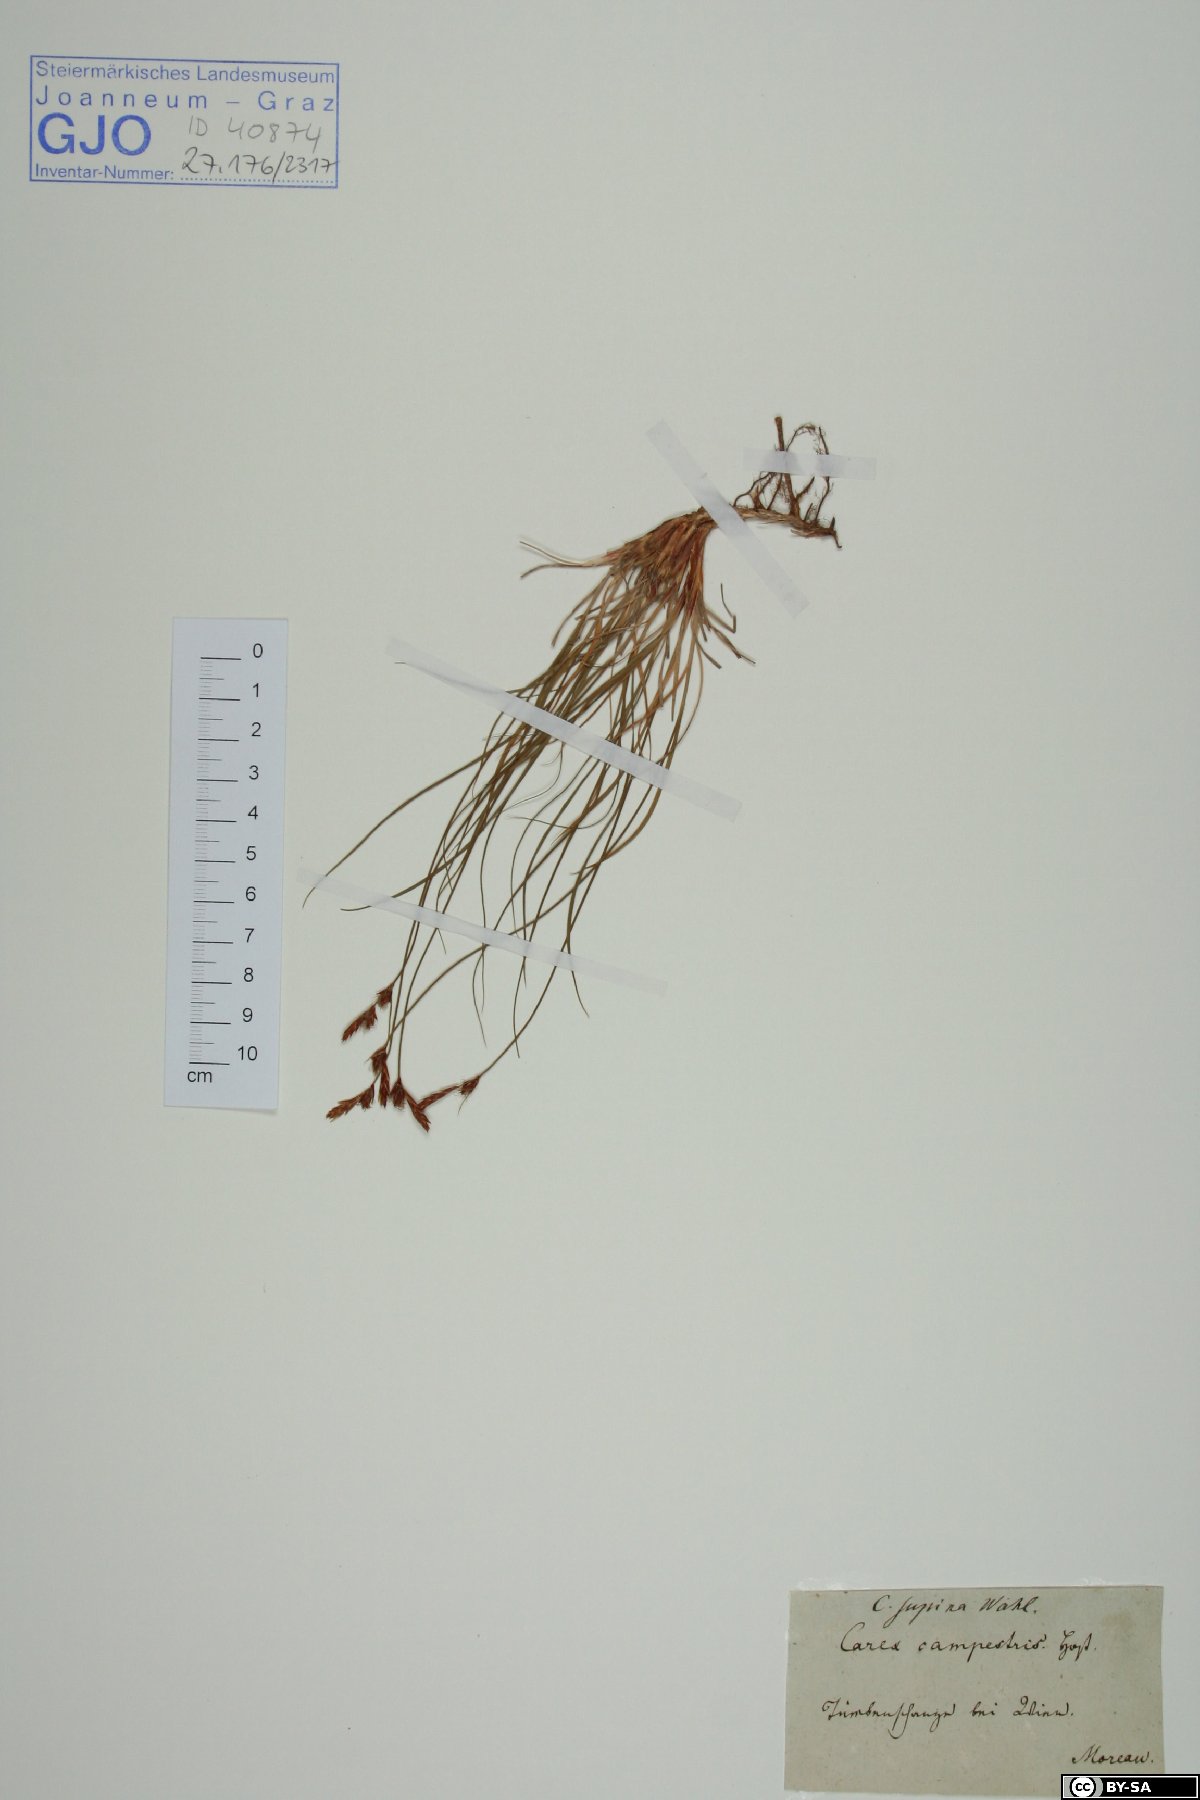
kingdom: Plantae
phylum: Tracheophyta
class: Liliopsida
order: Poales
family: Cyperaceae
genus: Carex
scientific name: Carex supina
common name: Lying-back sedge
